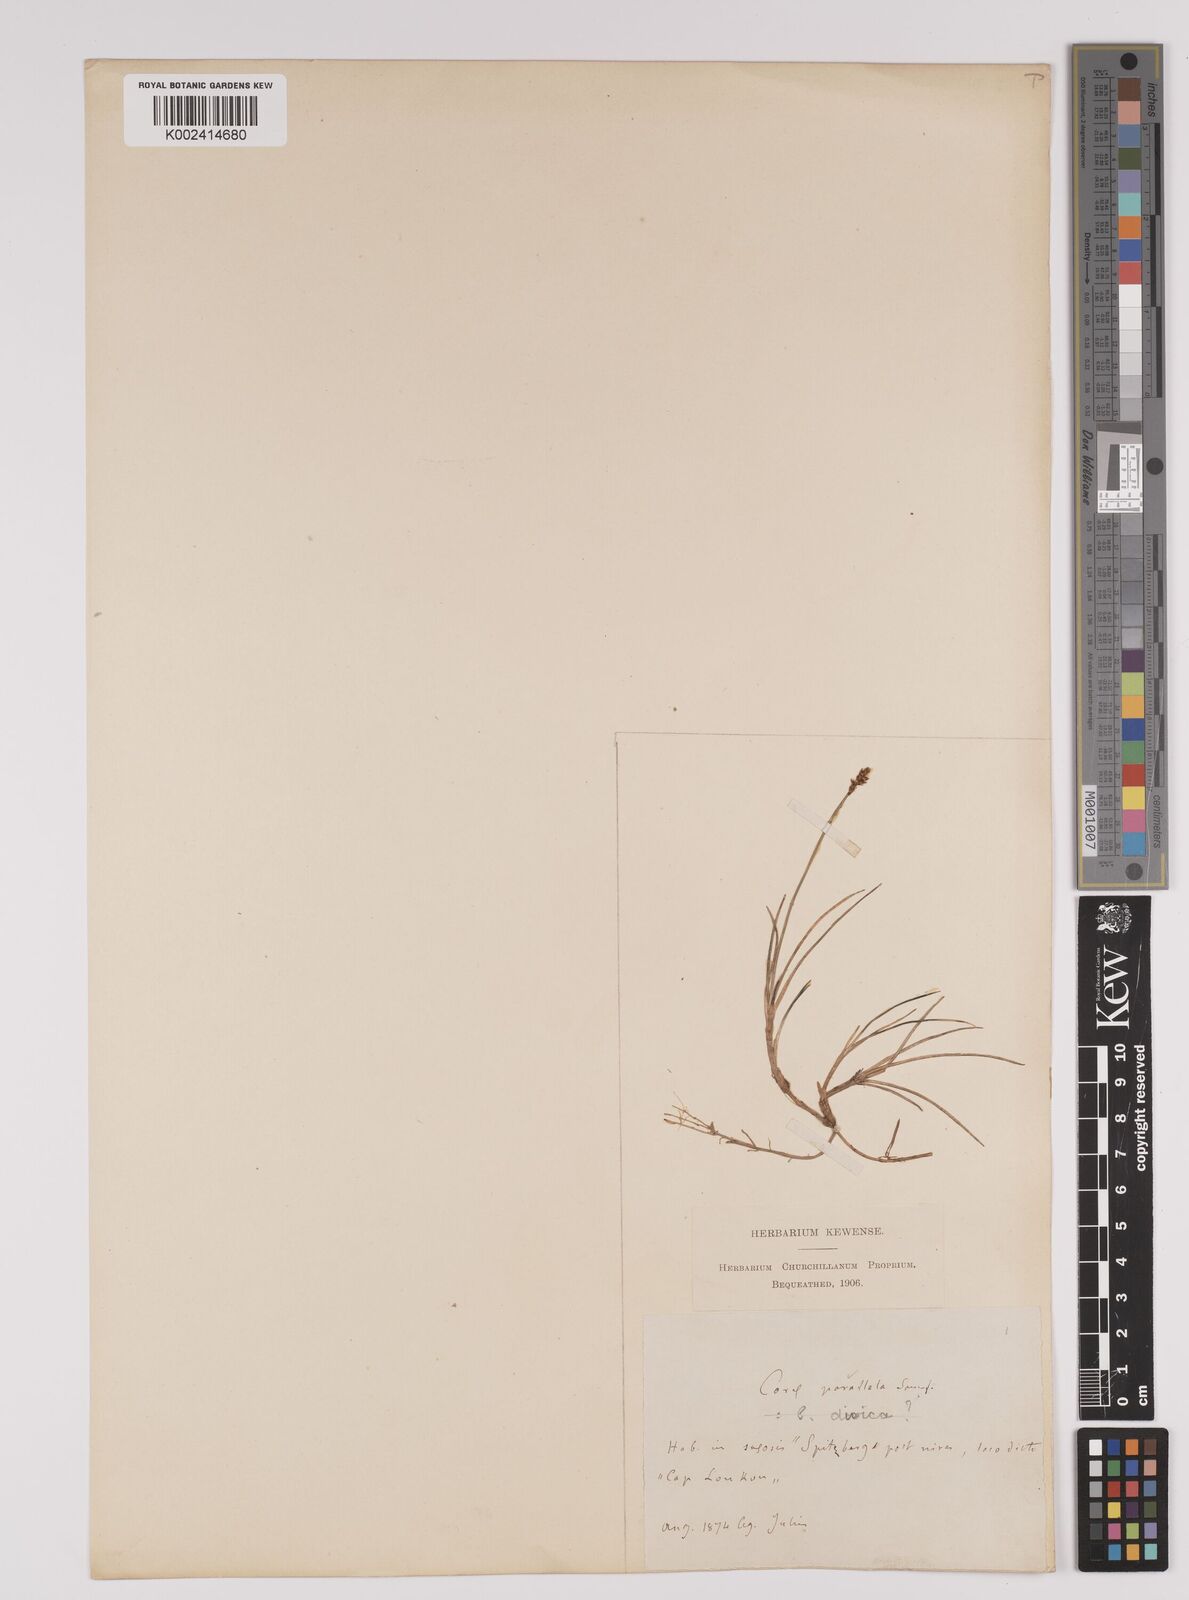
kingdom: Plantae
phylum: Tracheophyta
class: Liliopsida
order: Poales
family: Cyperaceae
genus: Carex
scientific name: Carex parallela
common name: Parallel sedge
